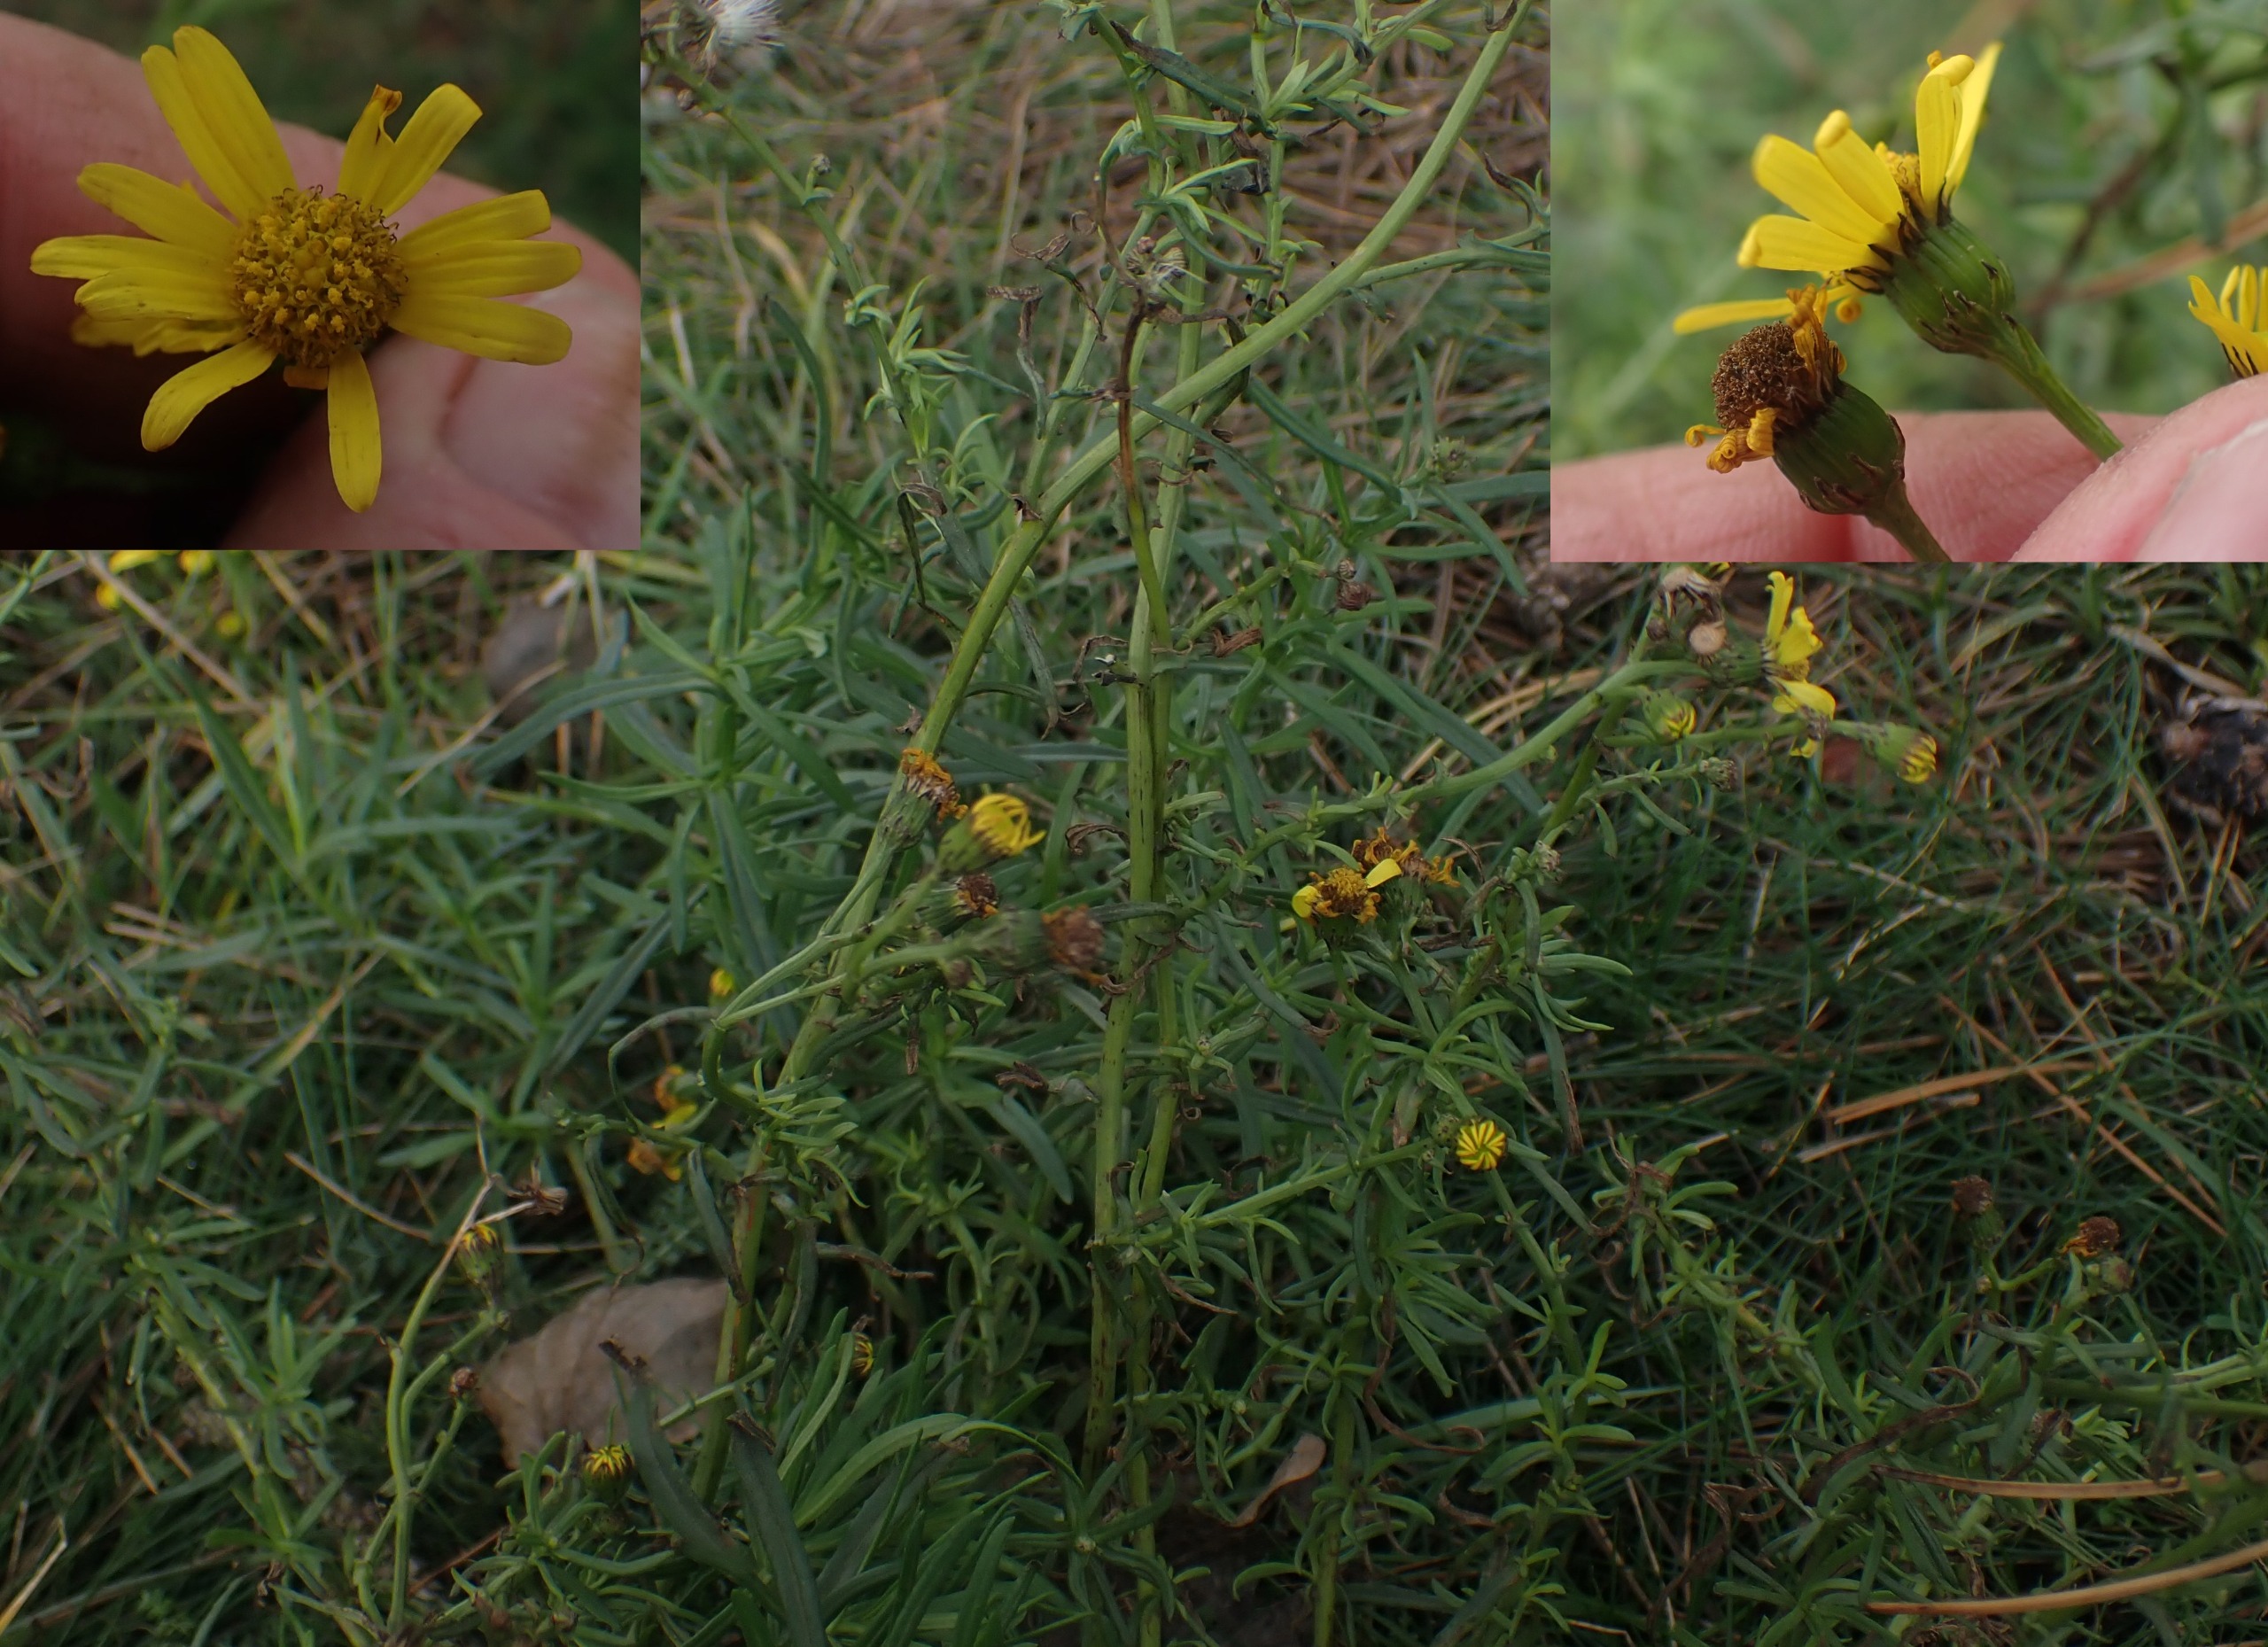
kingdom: Plantae
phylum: Tracheophyta
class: Magnoliopsida
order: Asterales
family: Asteraceae
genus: Senecio
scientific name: Senecio inaequidens
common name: Smalbladet brandbæger
